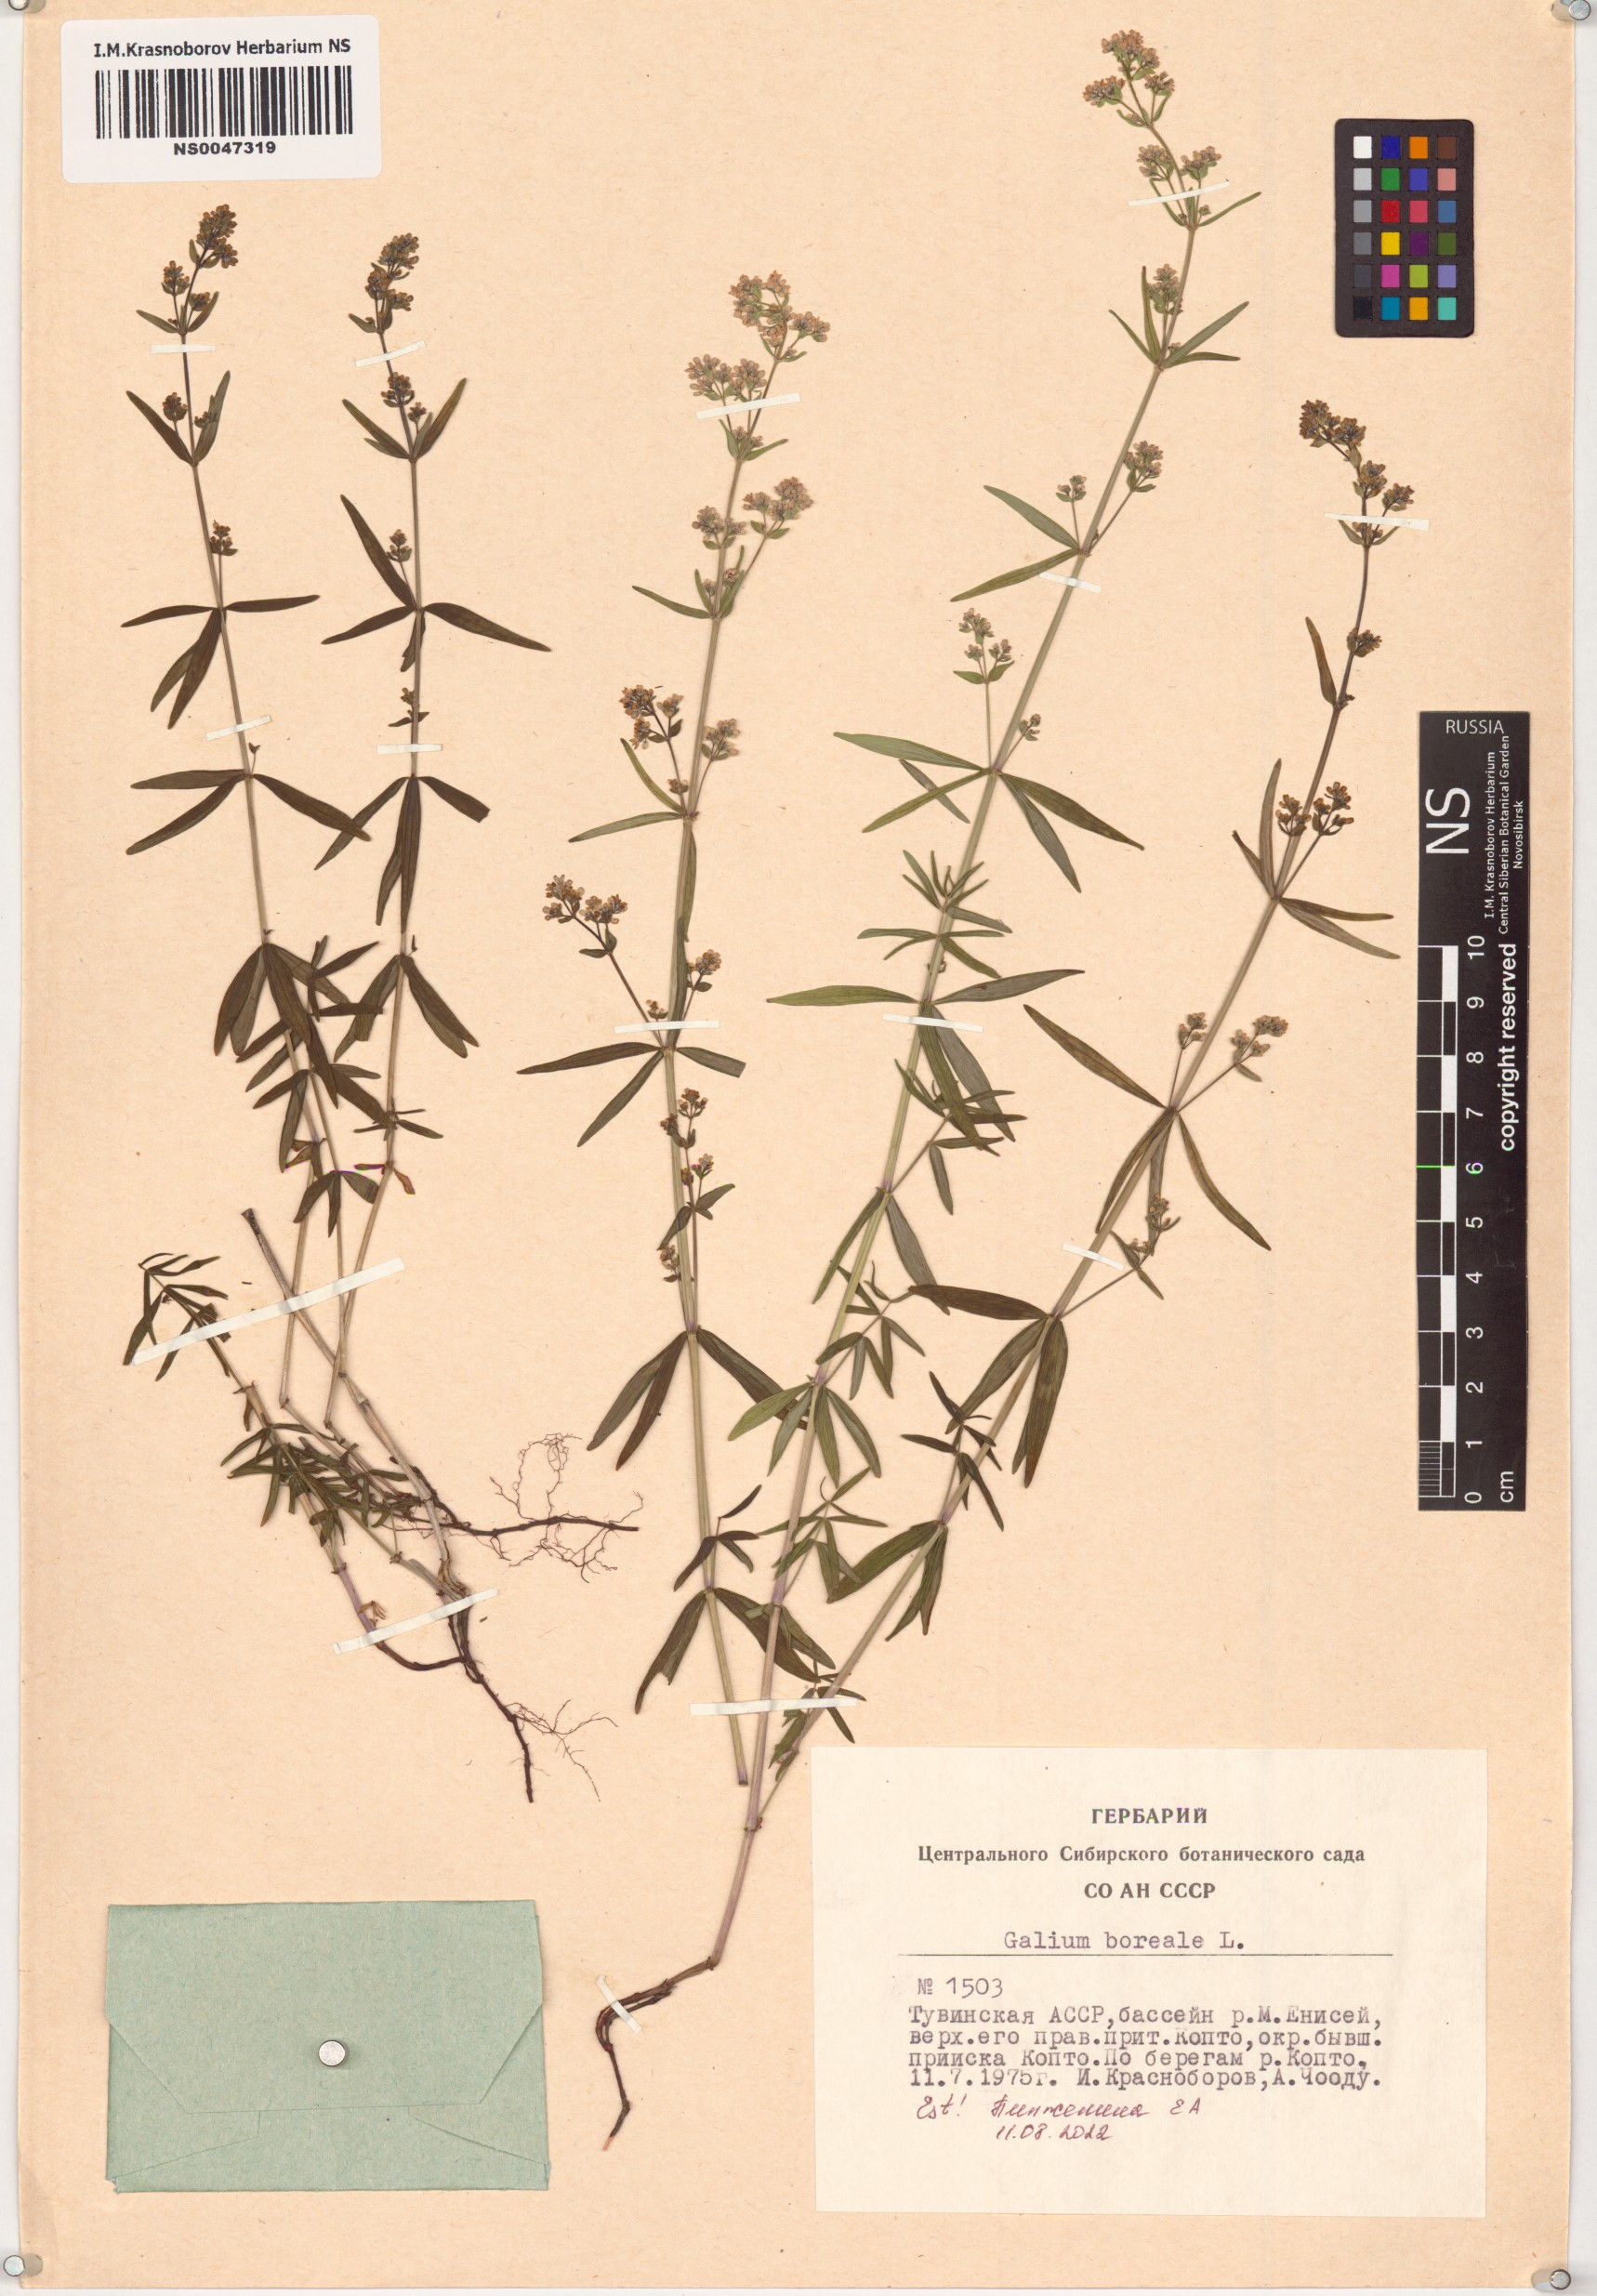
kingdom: Plantae
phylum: Tracheophyta
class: Magnoliopsida
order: Gentianales
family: Rubiaceae
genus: Galium
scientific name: Galium boreale
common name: Northern bedstraw
